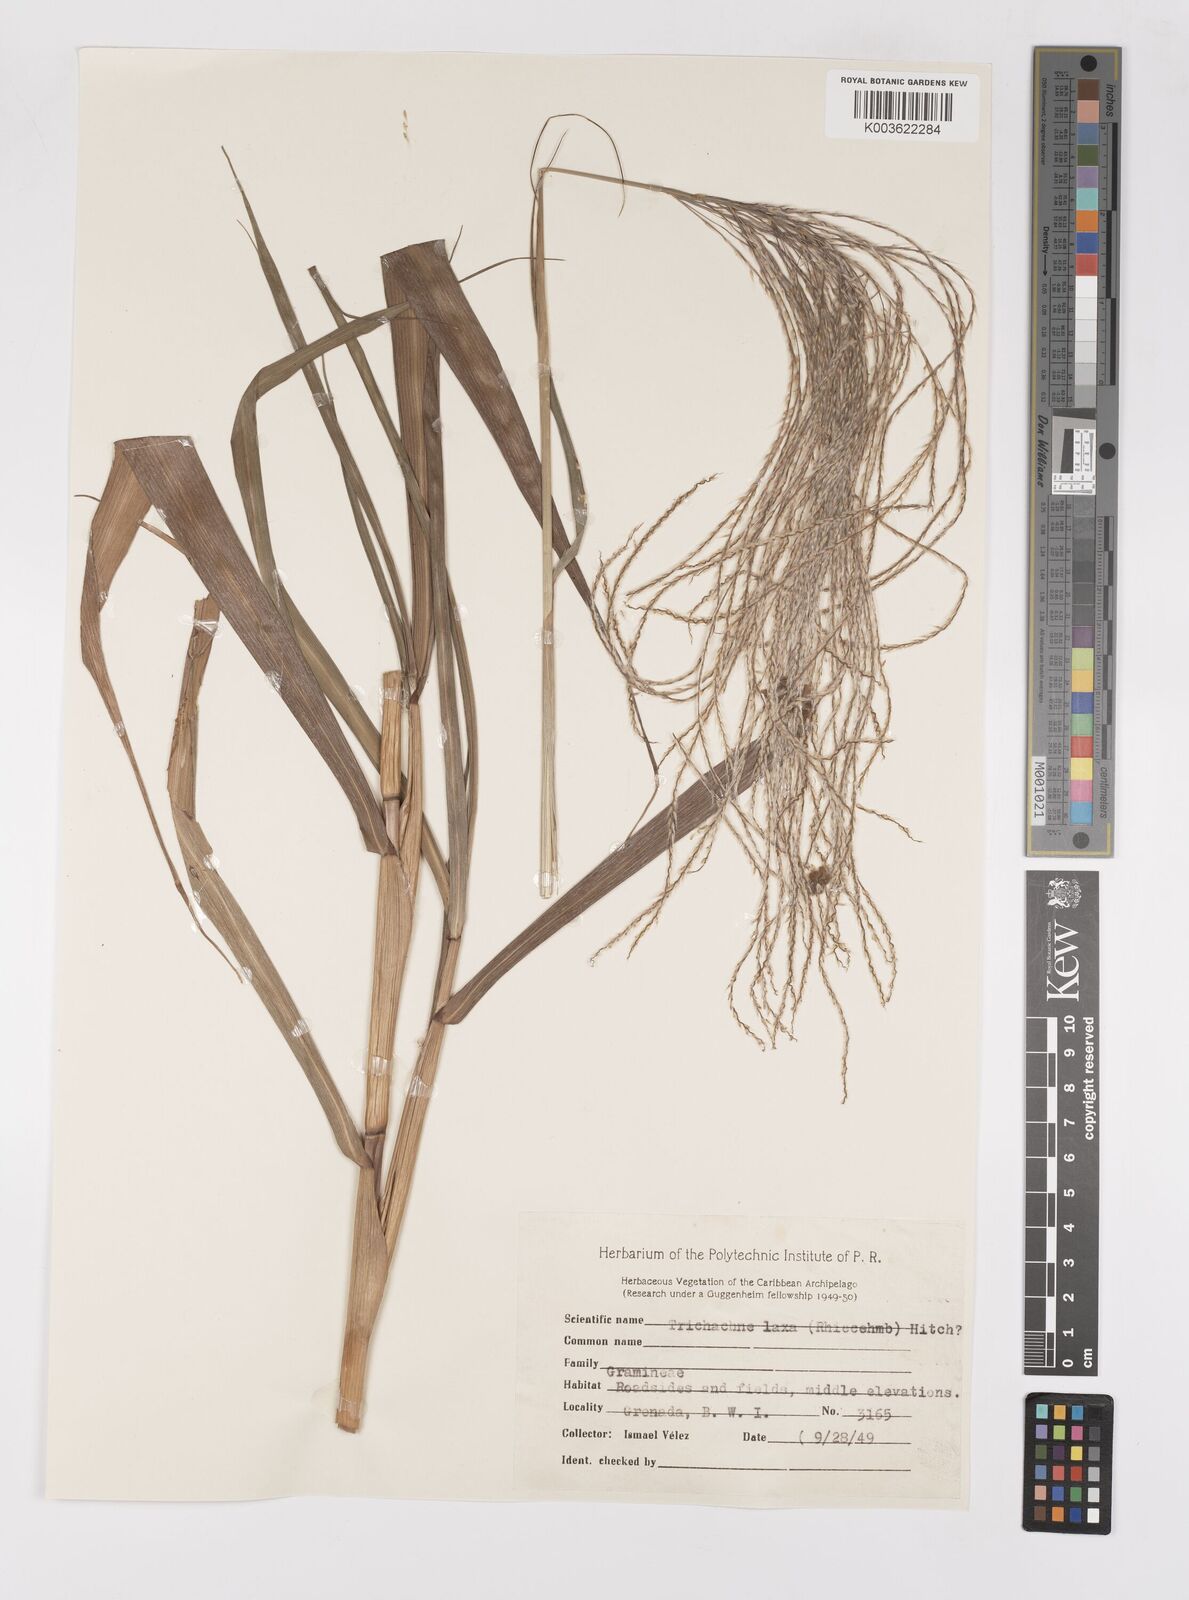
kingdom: Plantae
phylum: Tracheophyta
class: Liliopsida
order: Poales
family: Poaceae
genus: Paspalum
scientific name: Paspalum saccharoides
